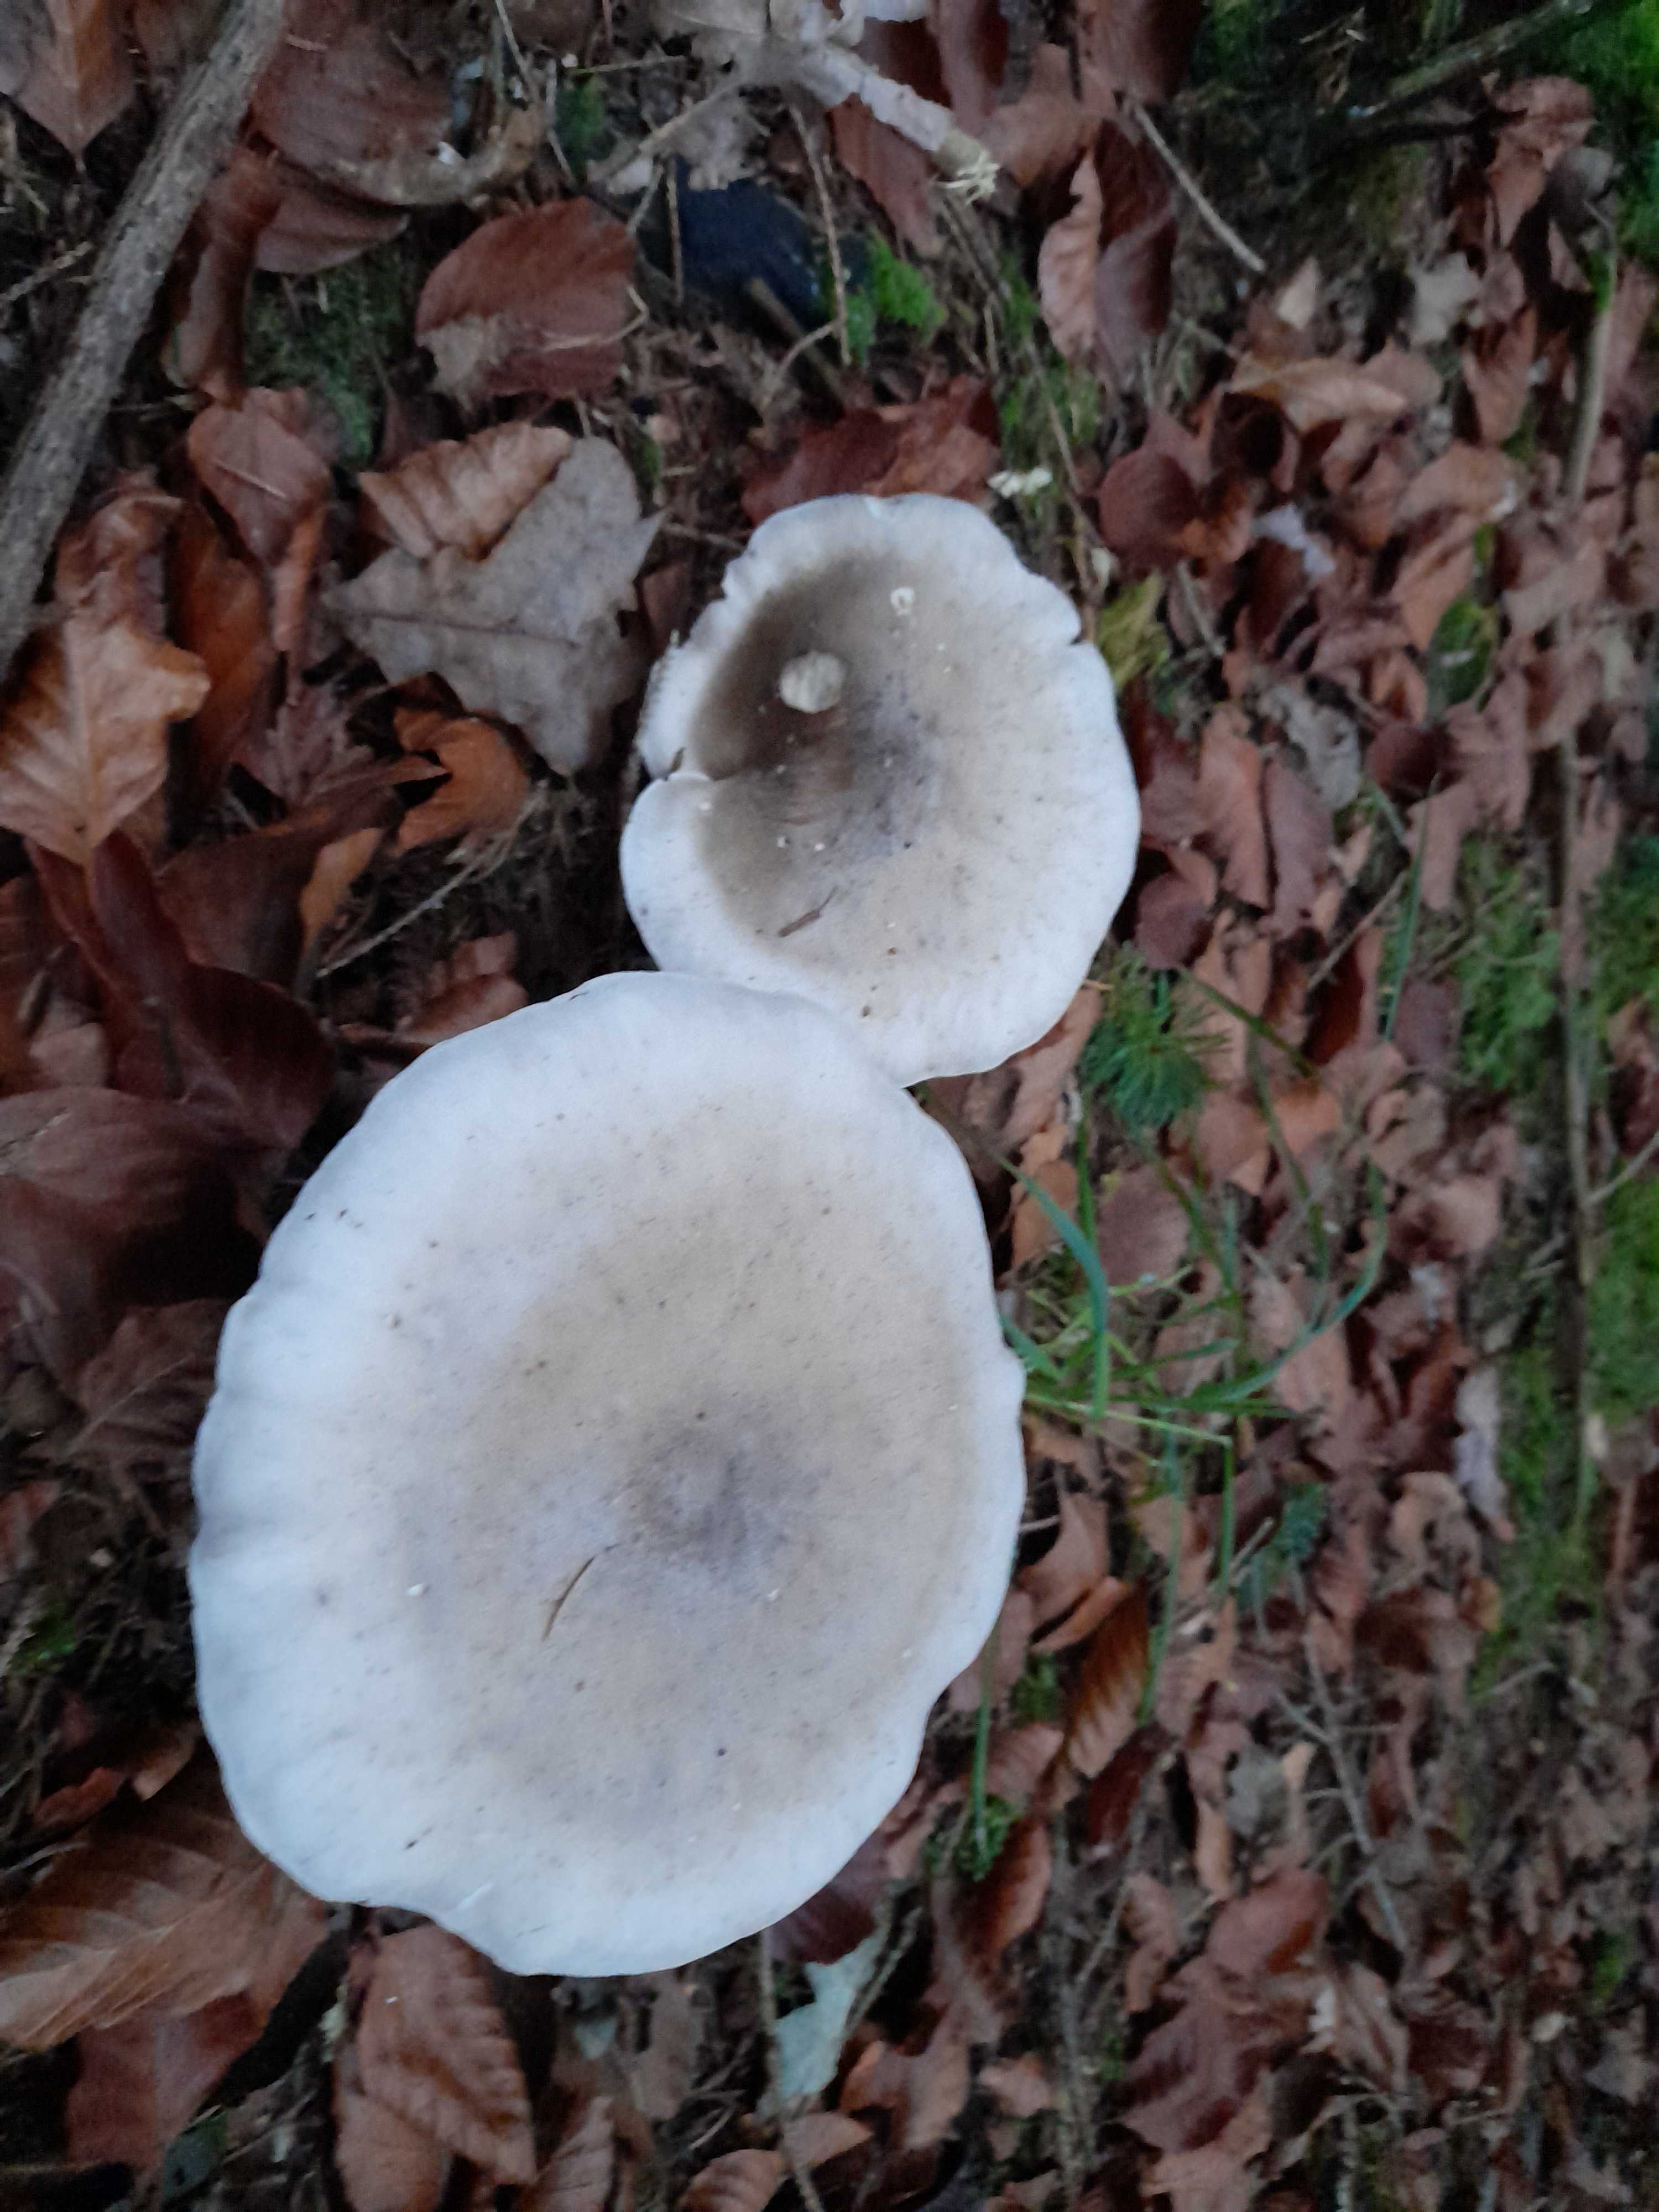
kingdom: Fungi
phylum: Basidiomycota
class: Agaricomycetes
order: Agaricales
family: Tricholomataceae
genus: Clitocybe
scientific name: Clitocybe nebularis
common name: tåge-tragthat
